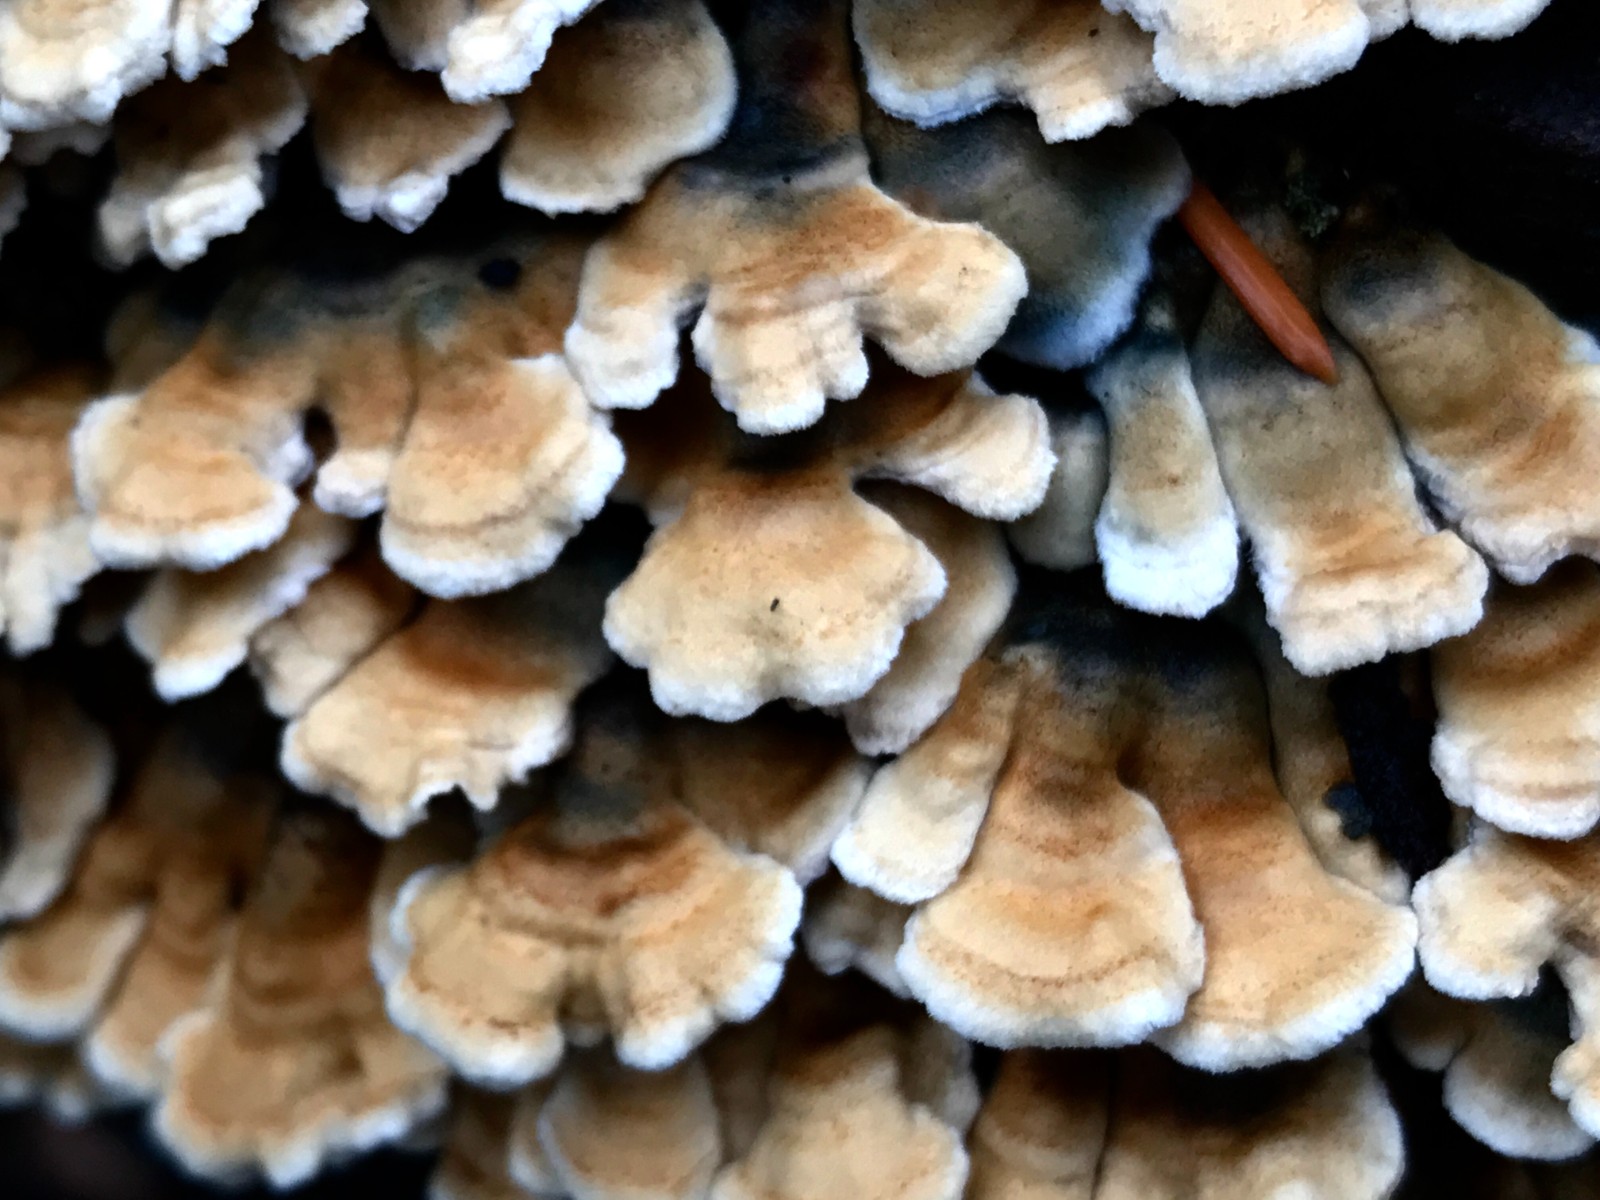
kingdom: Fungi
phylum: Basidiomycota
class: Agaricomycetes
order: Amylocorticiales
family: Amylocorticiaceae
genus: Plicaturopsis
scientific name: Plicaturopsis crispa
